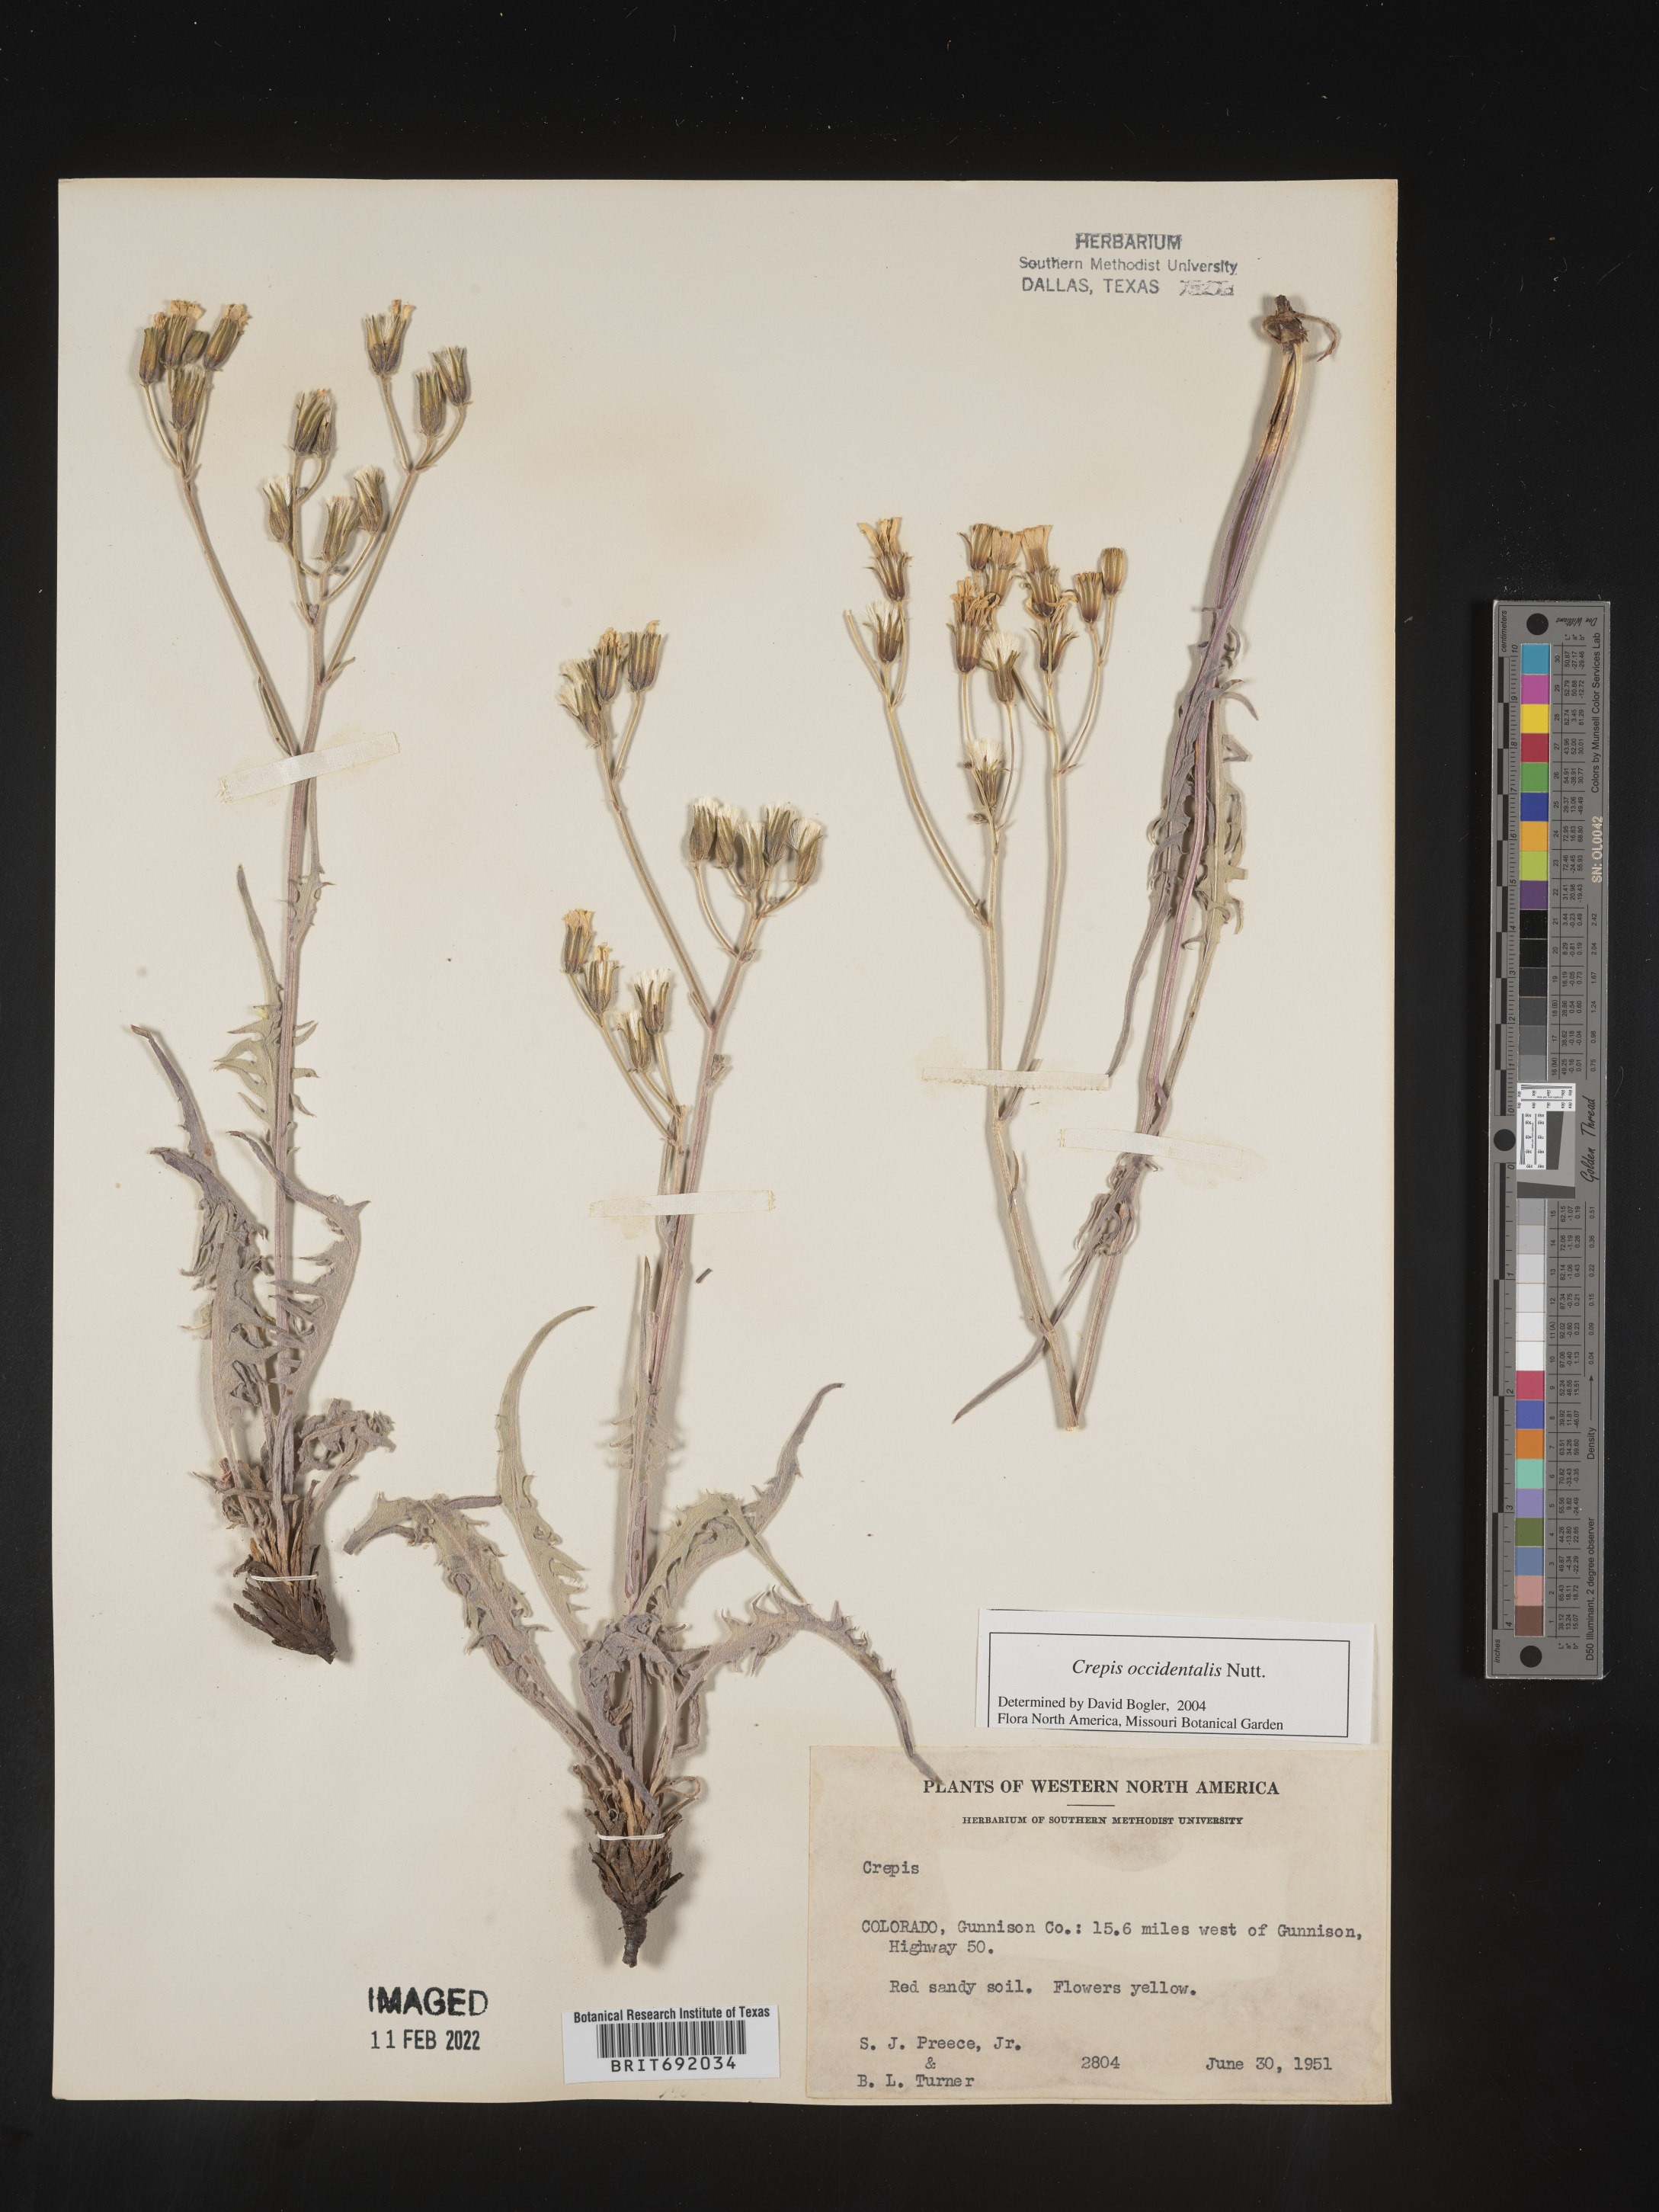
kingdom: Plantae
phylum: Tracheophyta
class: Magnoliopsida
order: Asterales
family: Asteraceae
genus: Crepis
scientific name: Crepis occidentalis
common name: Gray hawk's-beard
